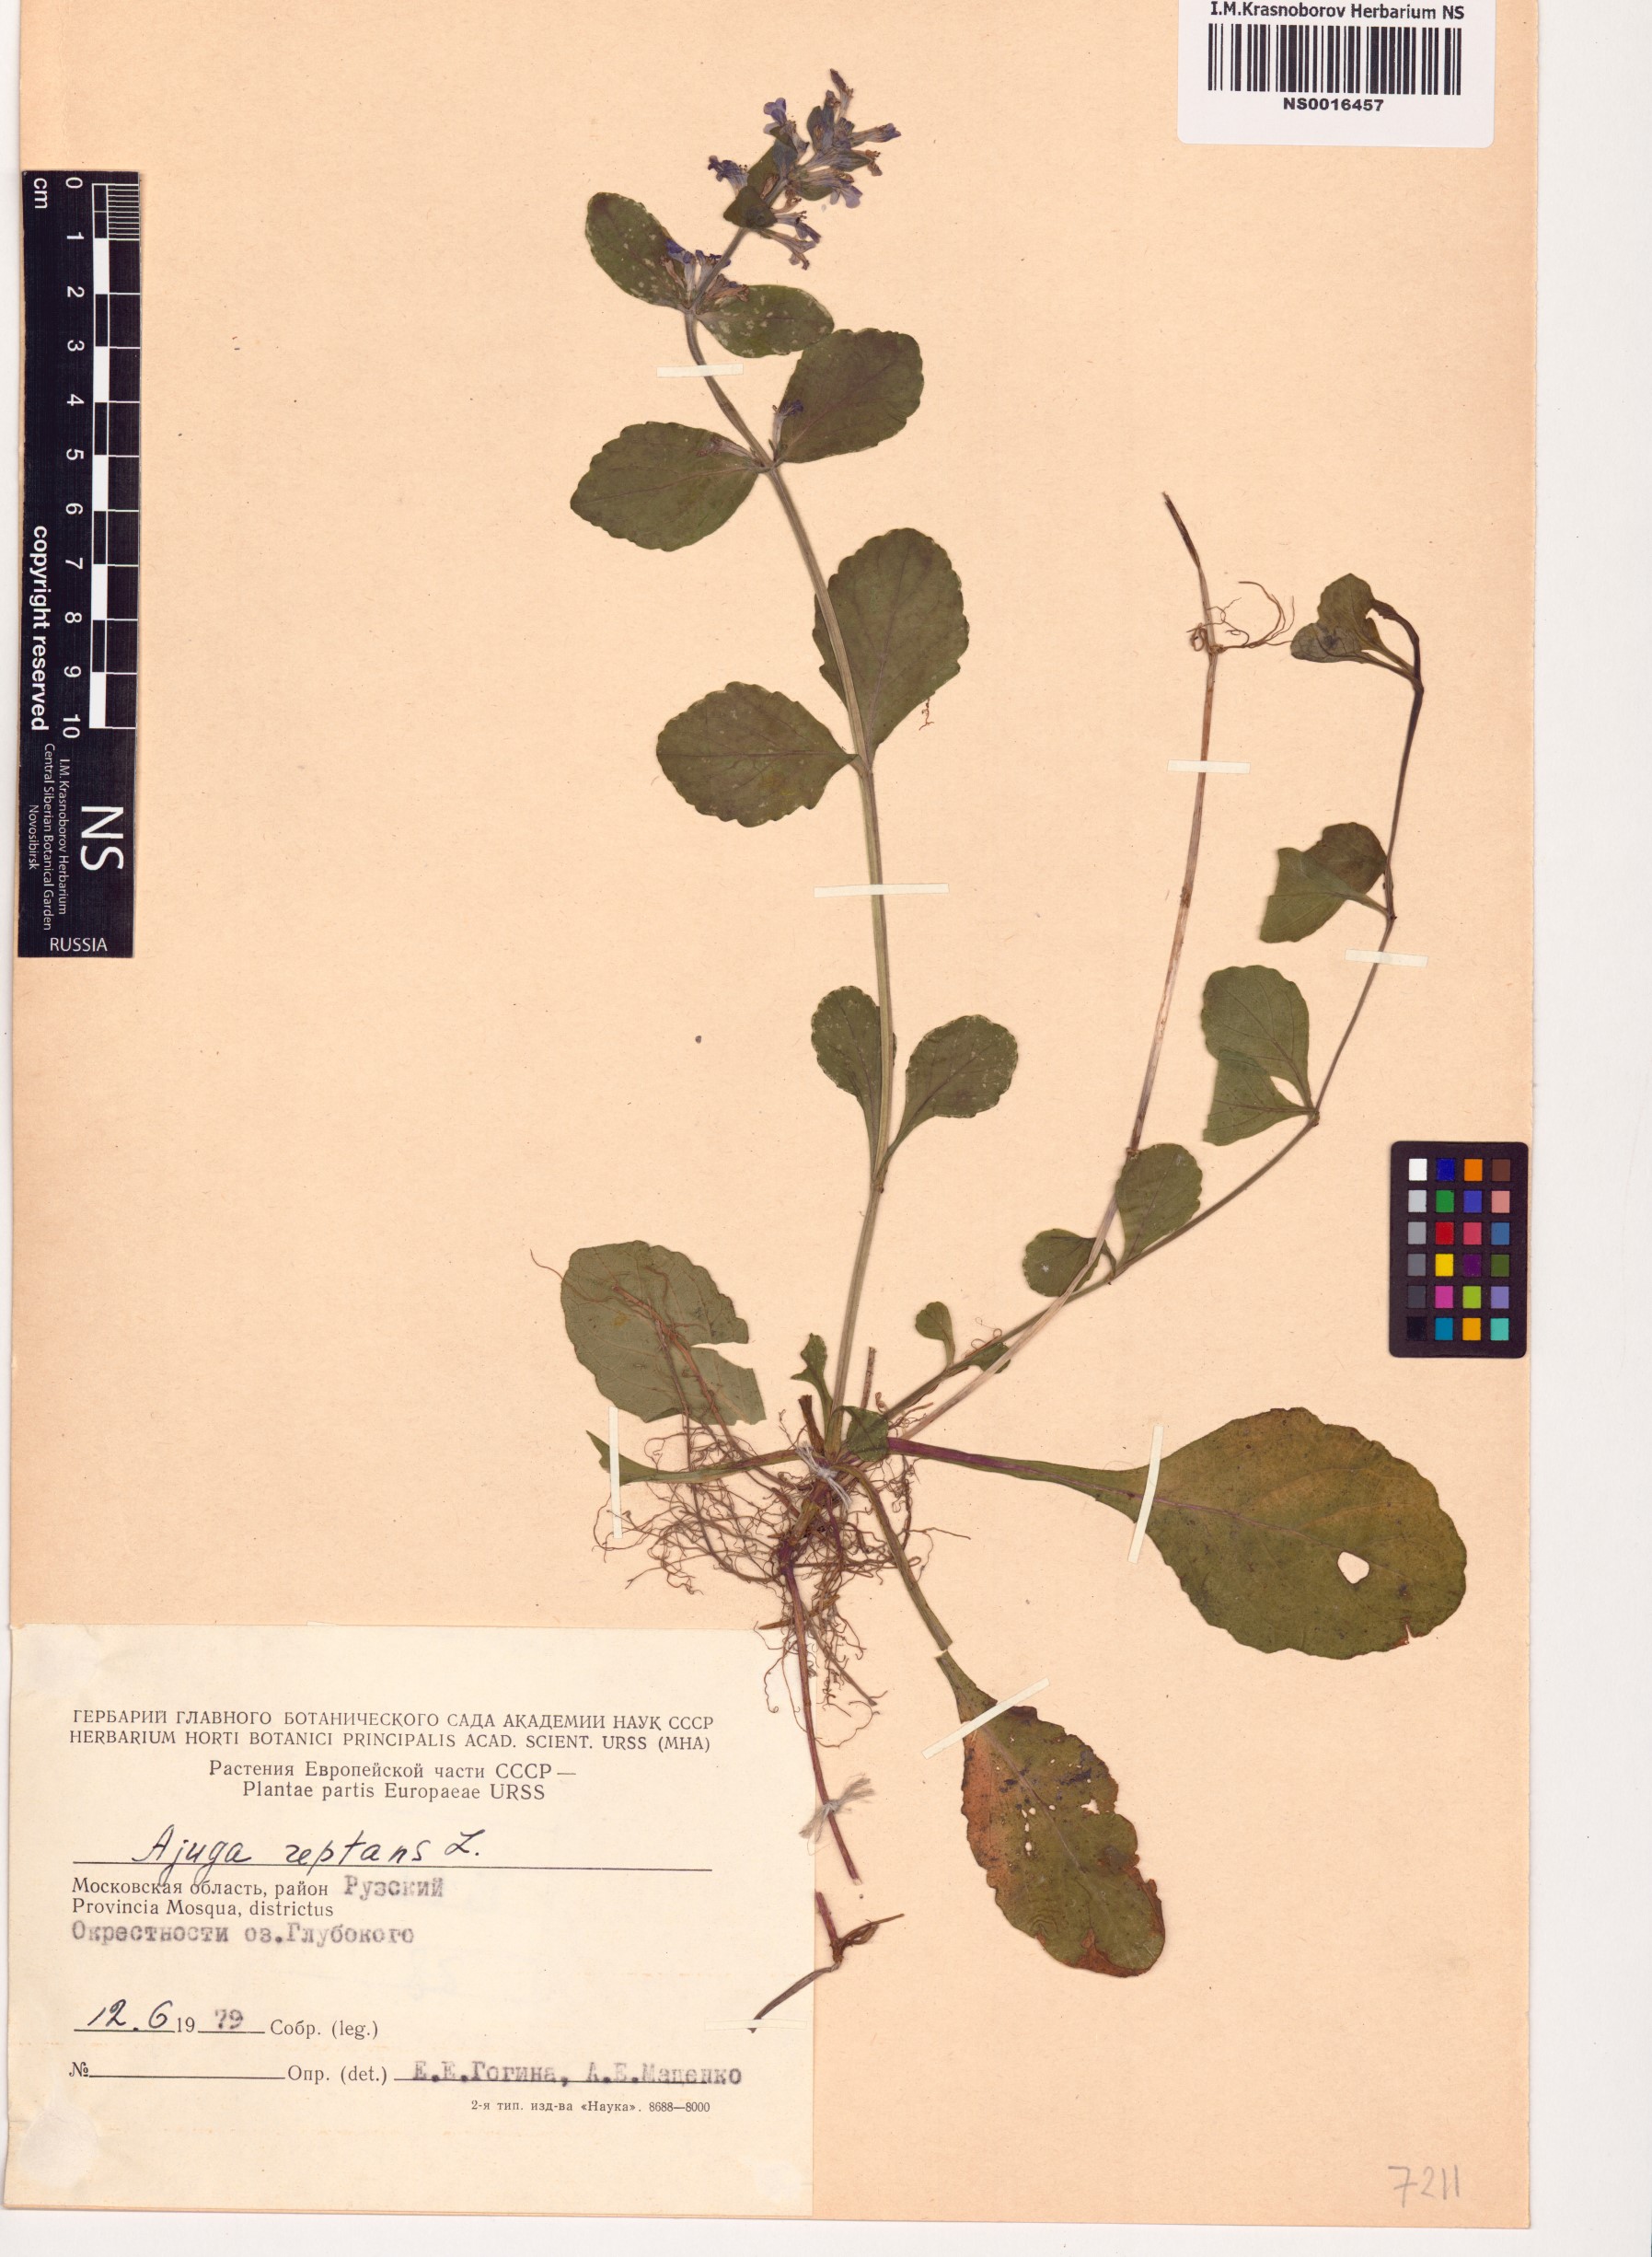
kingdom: Plantae
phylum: Tracheophyta
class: Magnoliopsida
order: Lamiales
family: Lamiaceae
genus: Ajuga
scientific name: Ajuga reptans
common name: Bugle
